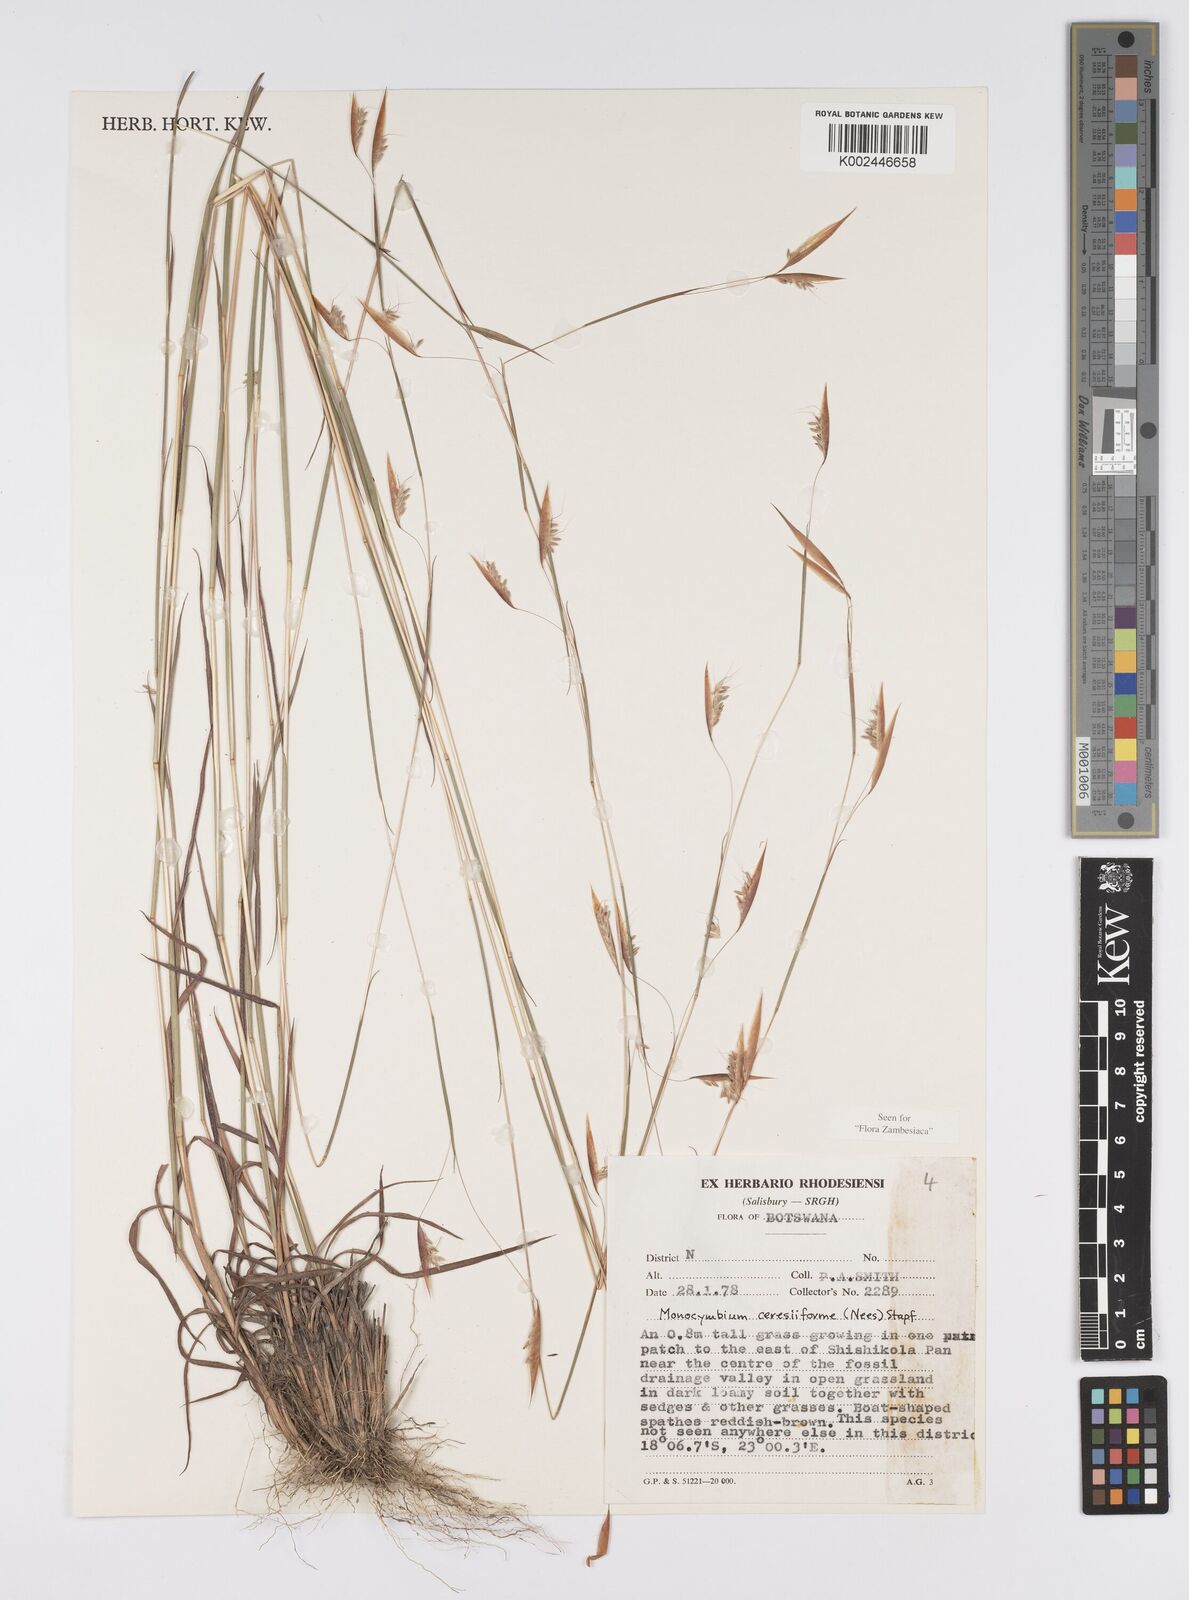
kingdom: Plantae
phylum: Tracheophyta
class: Liliopsida
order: Poales
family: Poaceae
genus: Monocymbium
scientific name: Monocymbium ceresiiforme
